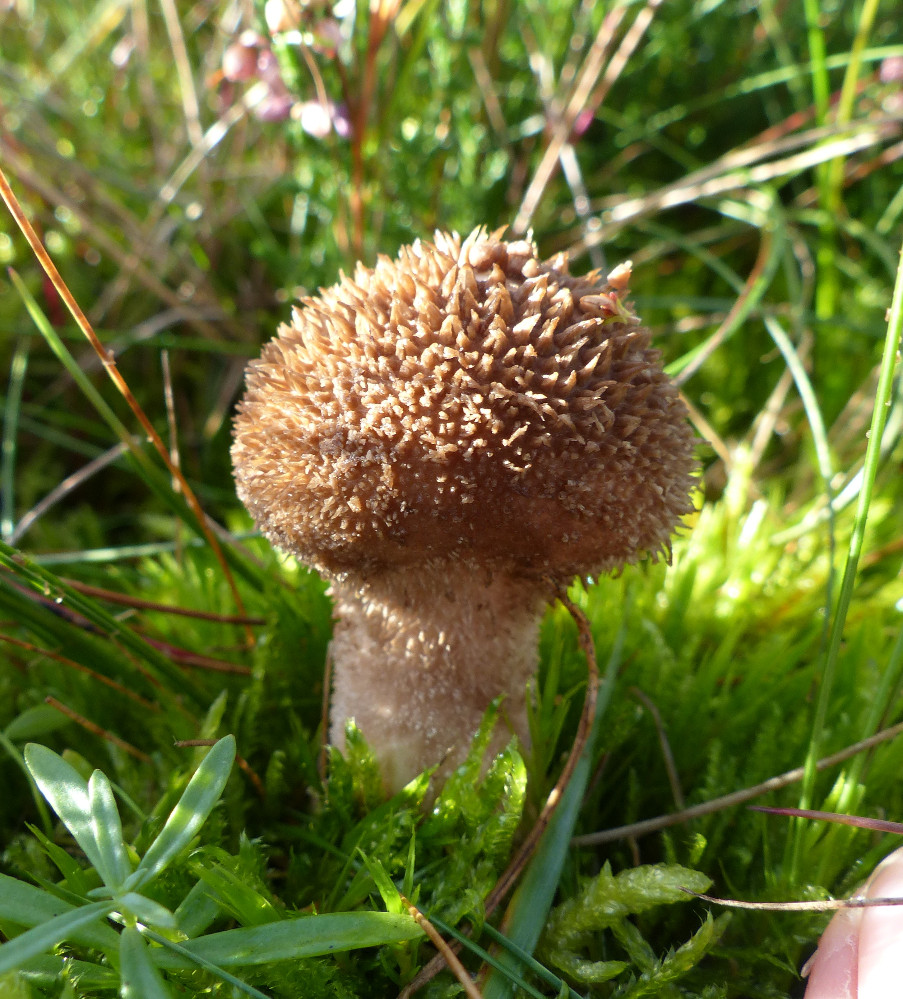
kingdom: Fungi
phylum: Basidiomycota
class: Agaricomycetes
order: Agaricales
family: Lycoperdaceae
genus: Lycoperdon
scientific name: Lycoperdon nigrescens
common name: sortagtig støvbold
